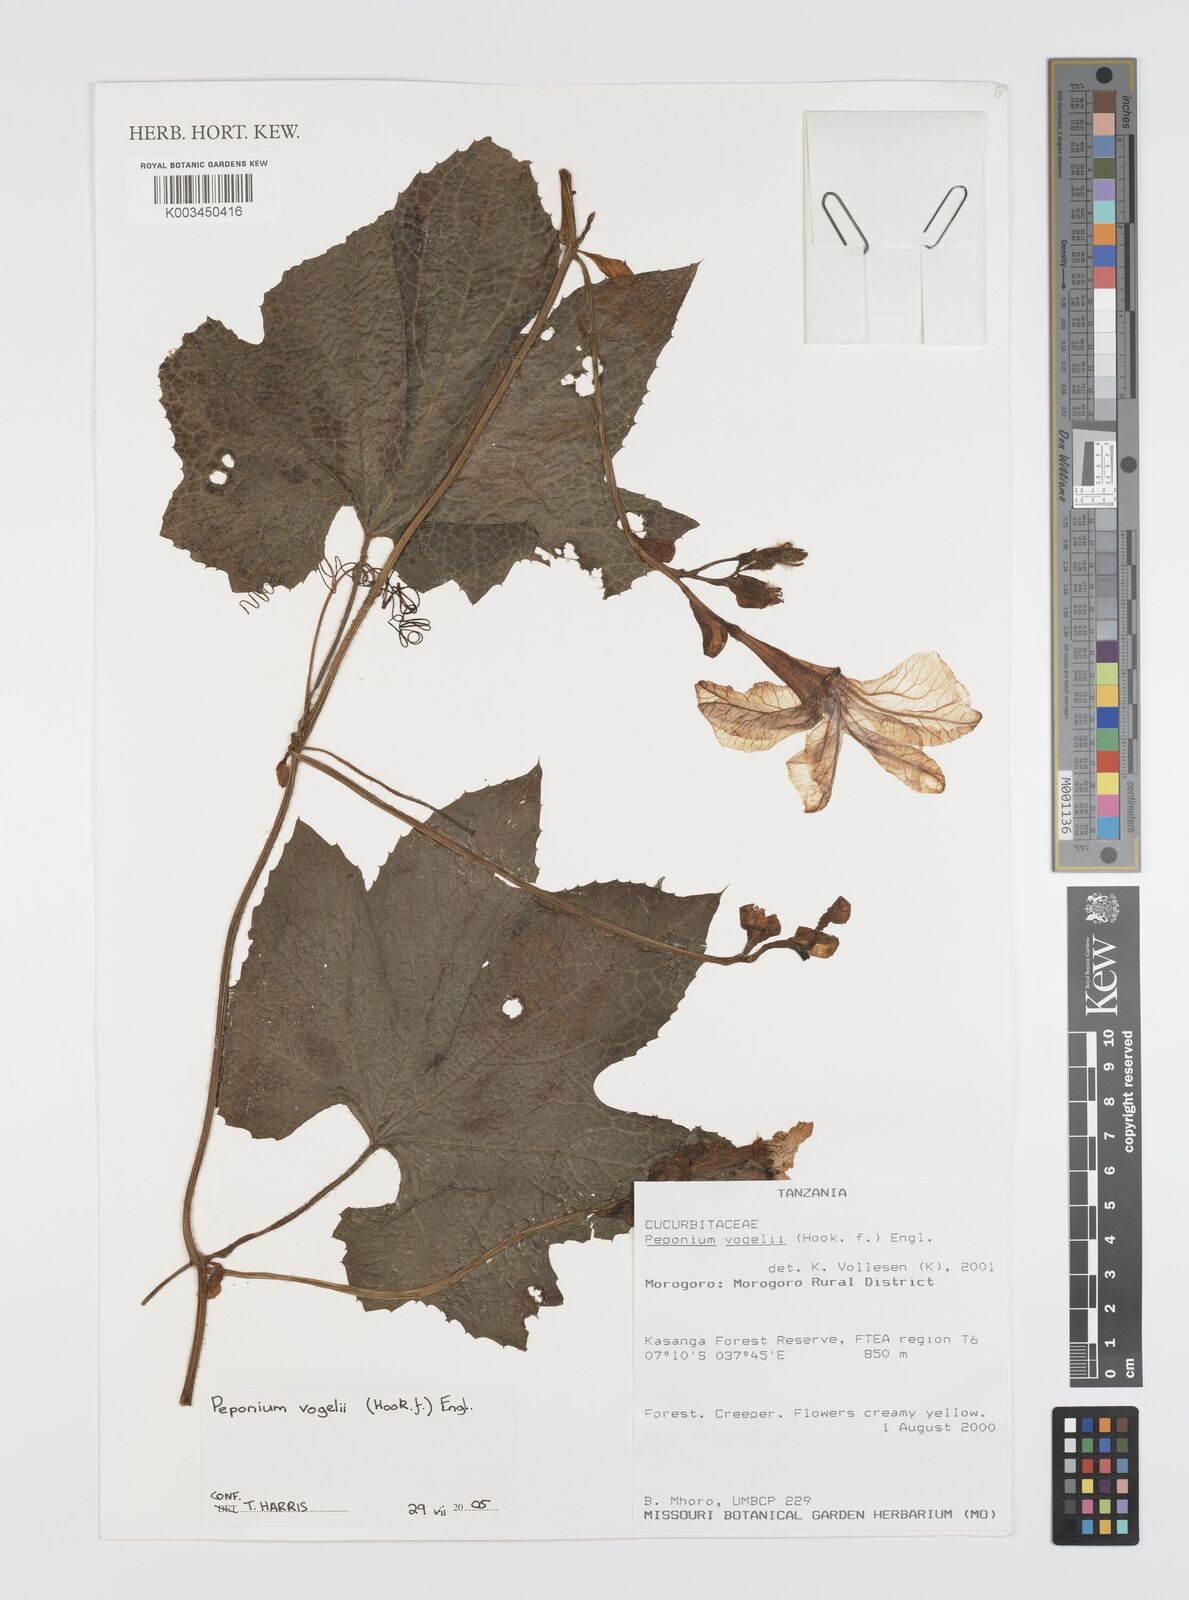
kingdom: Plantae
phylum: Tracheophyta
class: Magnoliopsida
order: Cucurbitales
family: Cucurbitaceae
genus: Peponium
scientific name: Peponium vogelii
